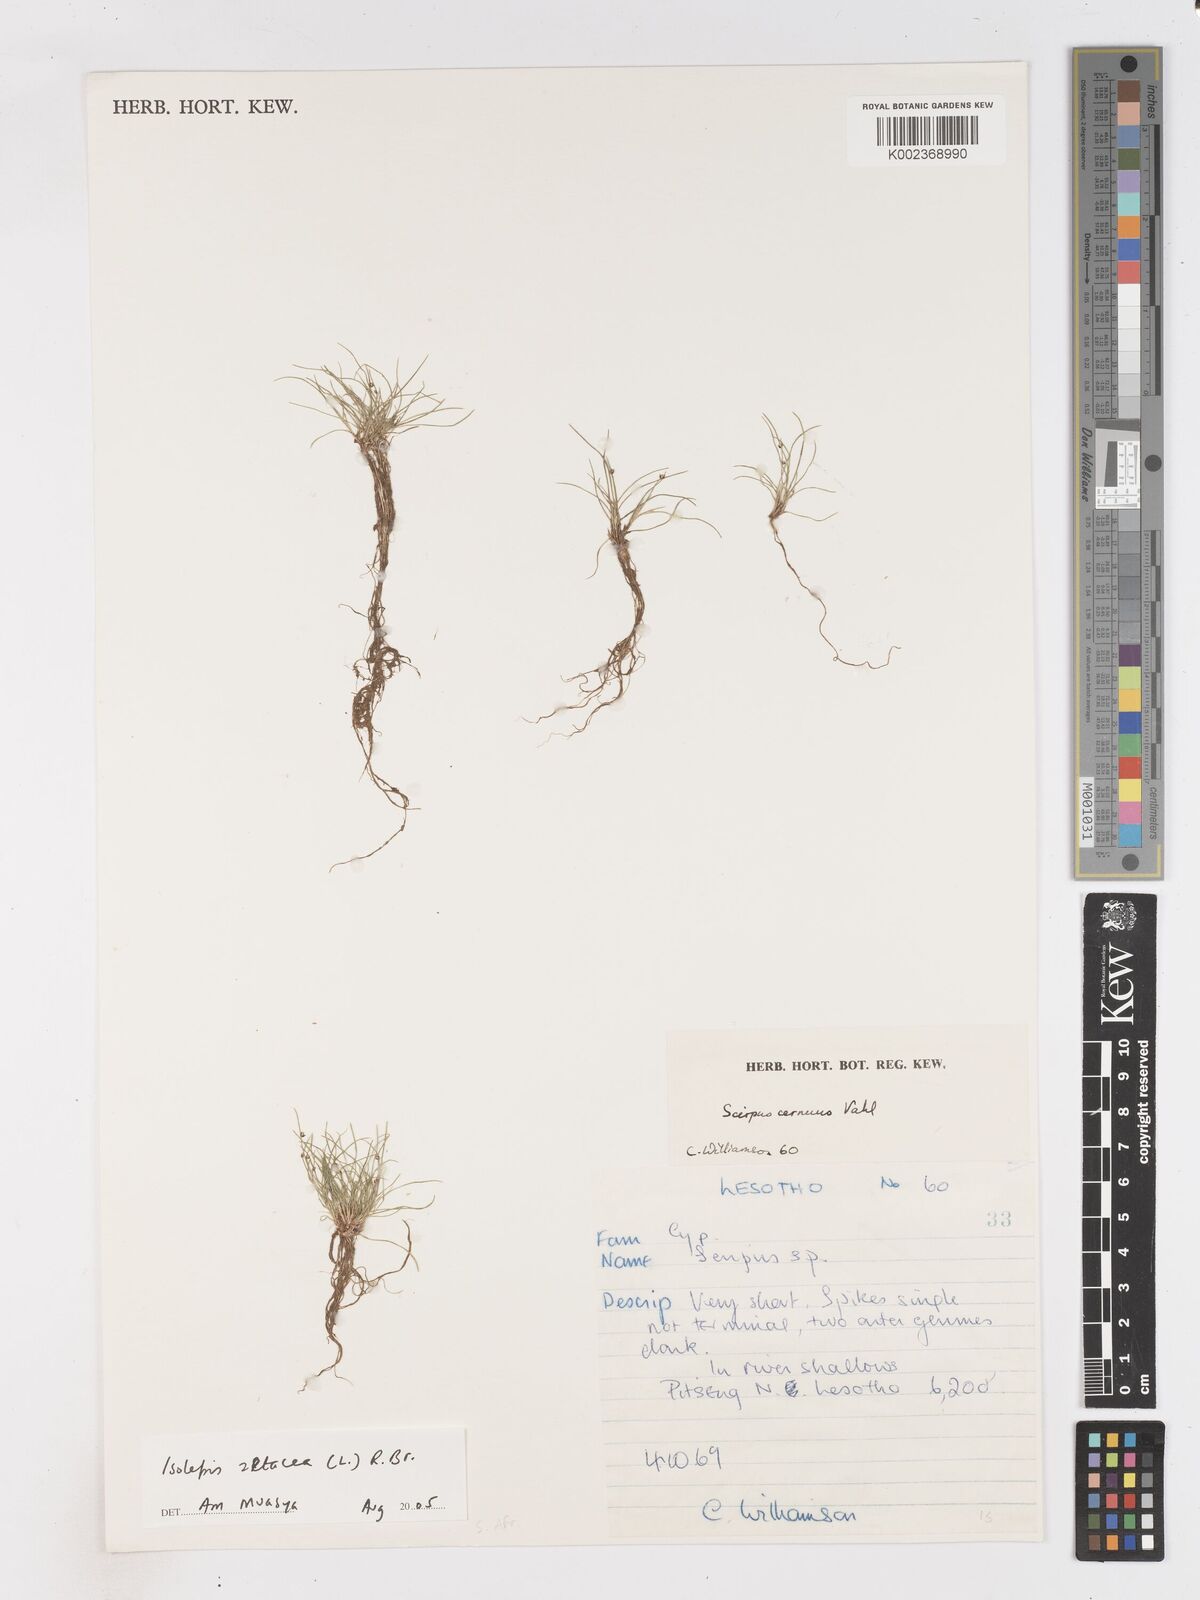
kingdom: Plantae
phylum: Tracheophyta
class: Liliopsida
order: Poales
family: Cyperaceae
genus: Isolepis
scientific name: Isolepis setacea
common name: Bristle club-rush
